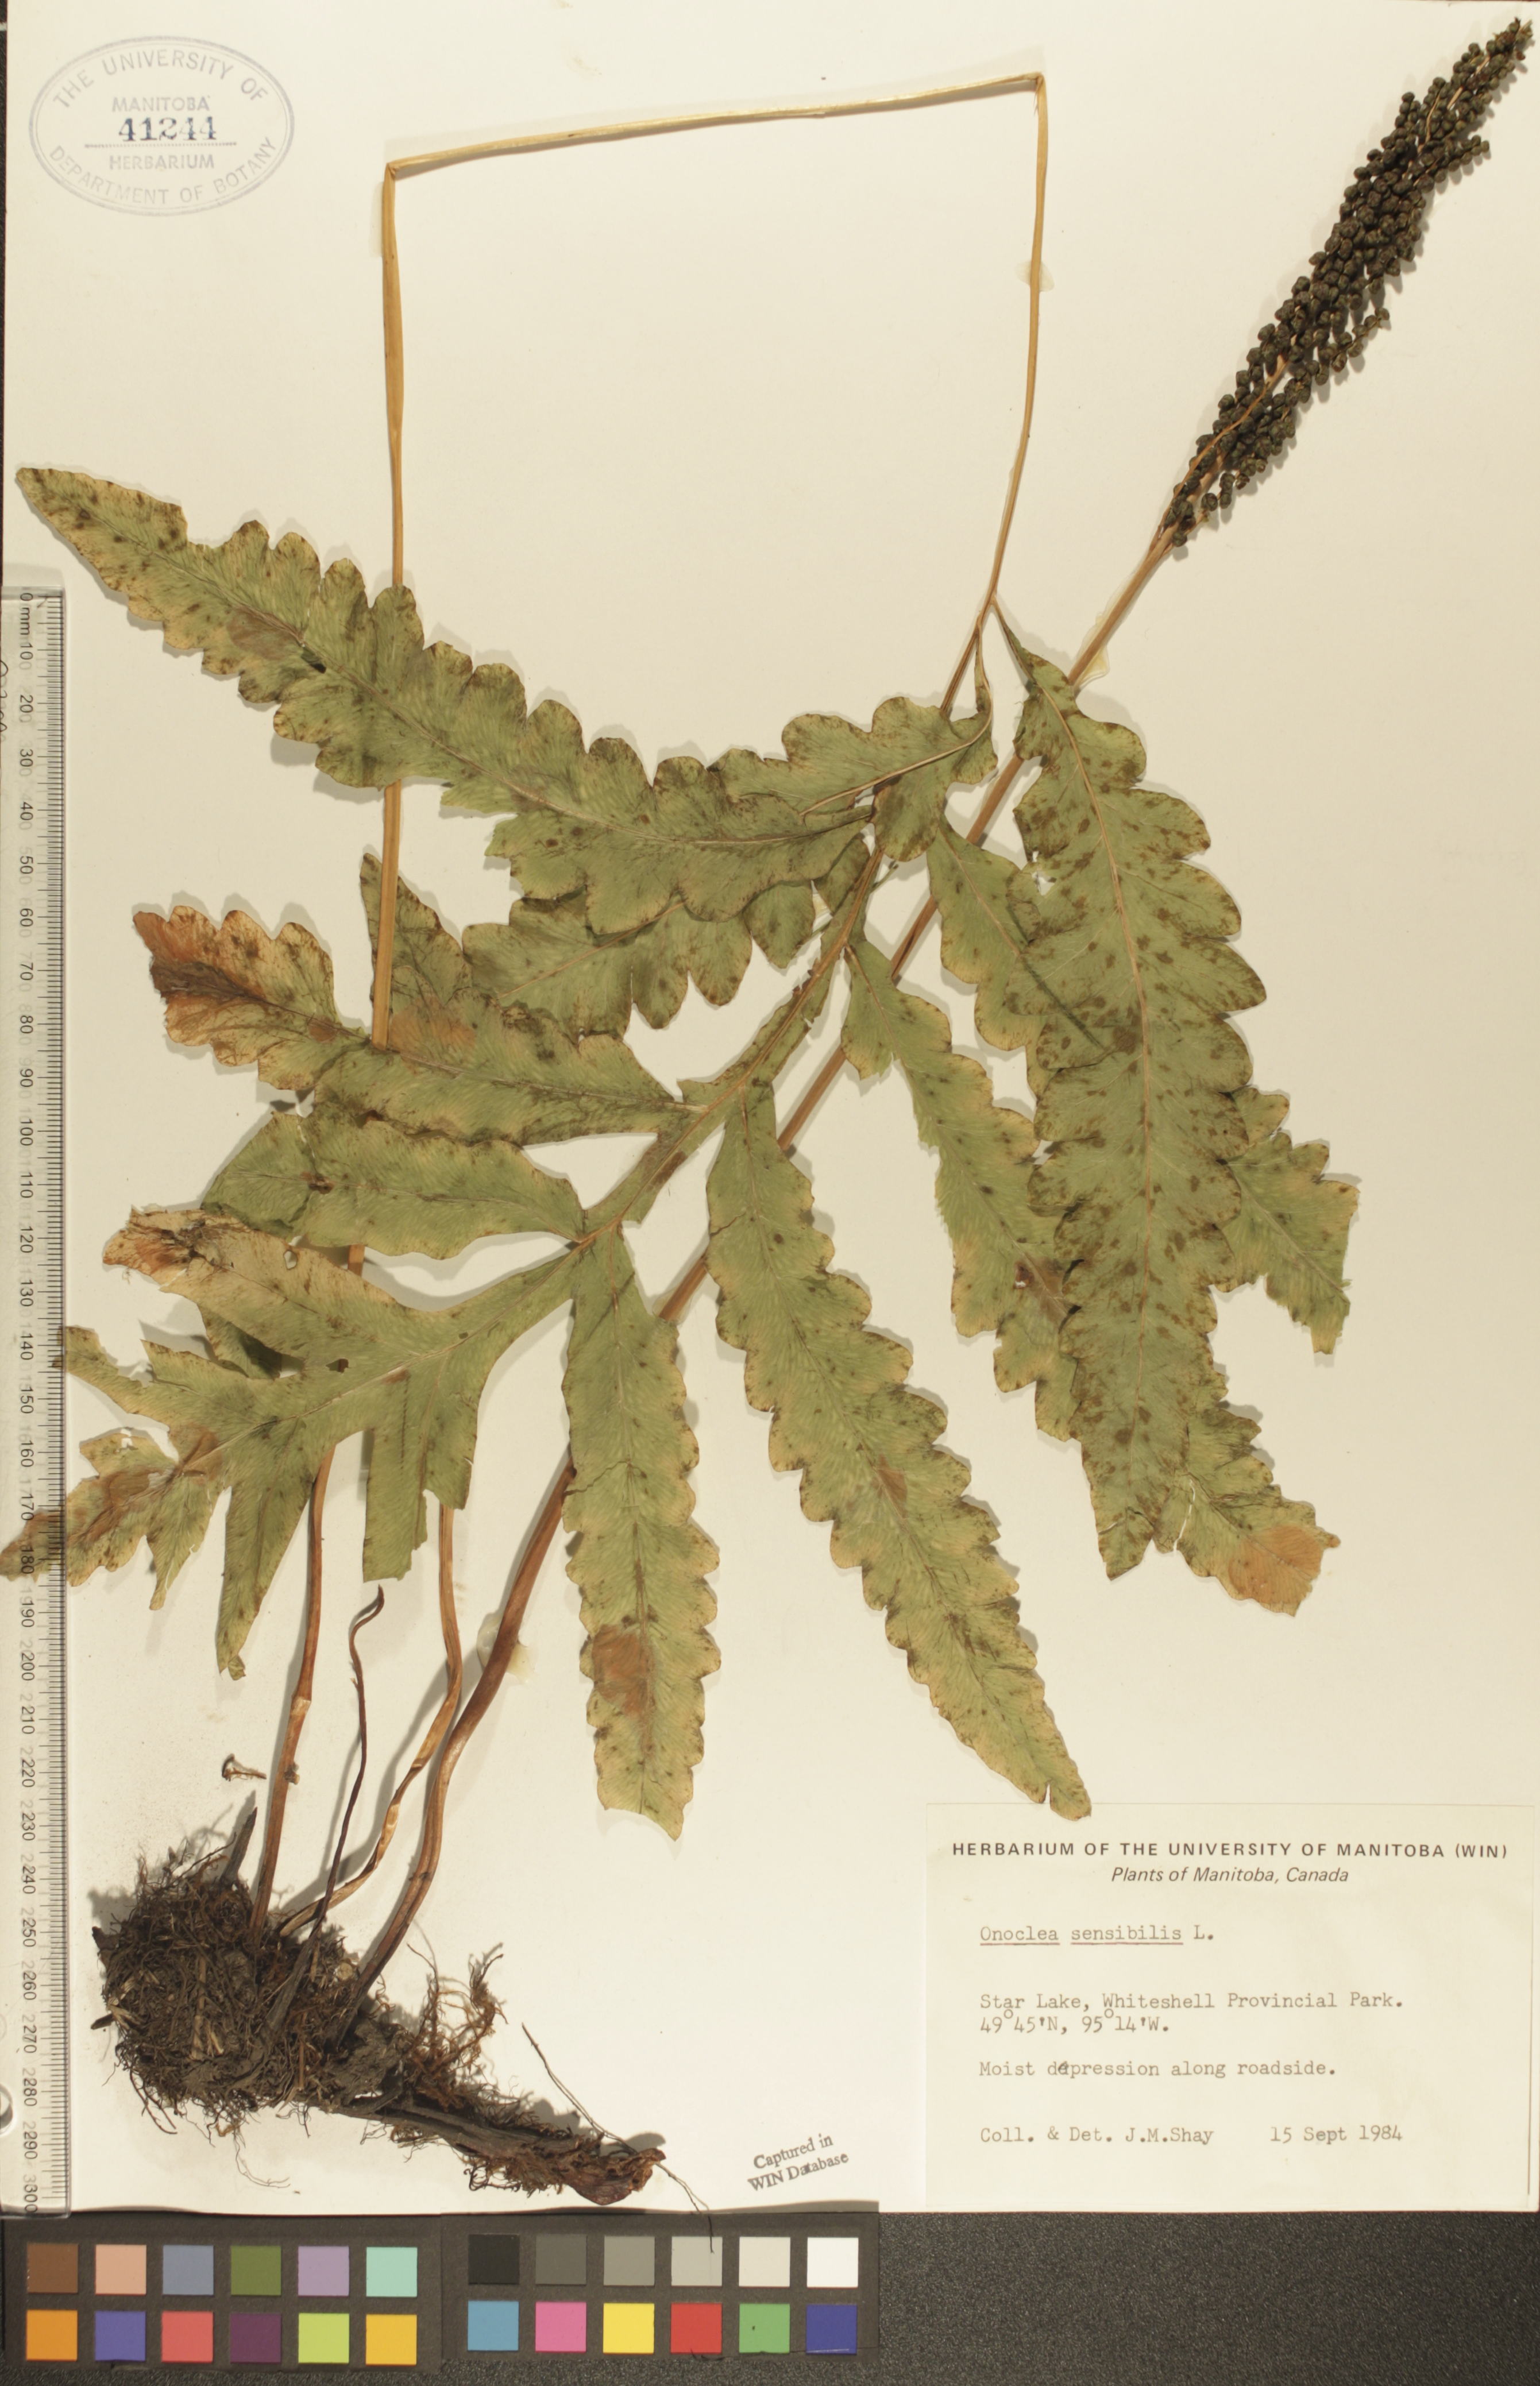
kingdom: Plantae
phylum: Tracheophyta
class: Polypodiopsida
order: Polypodiales
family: Onocleaceae
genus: Onoclea
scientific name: Onoclea sensibilis
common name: Sensitive fern
